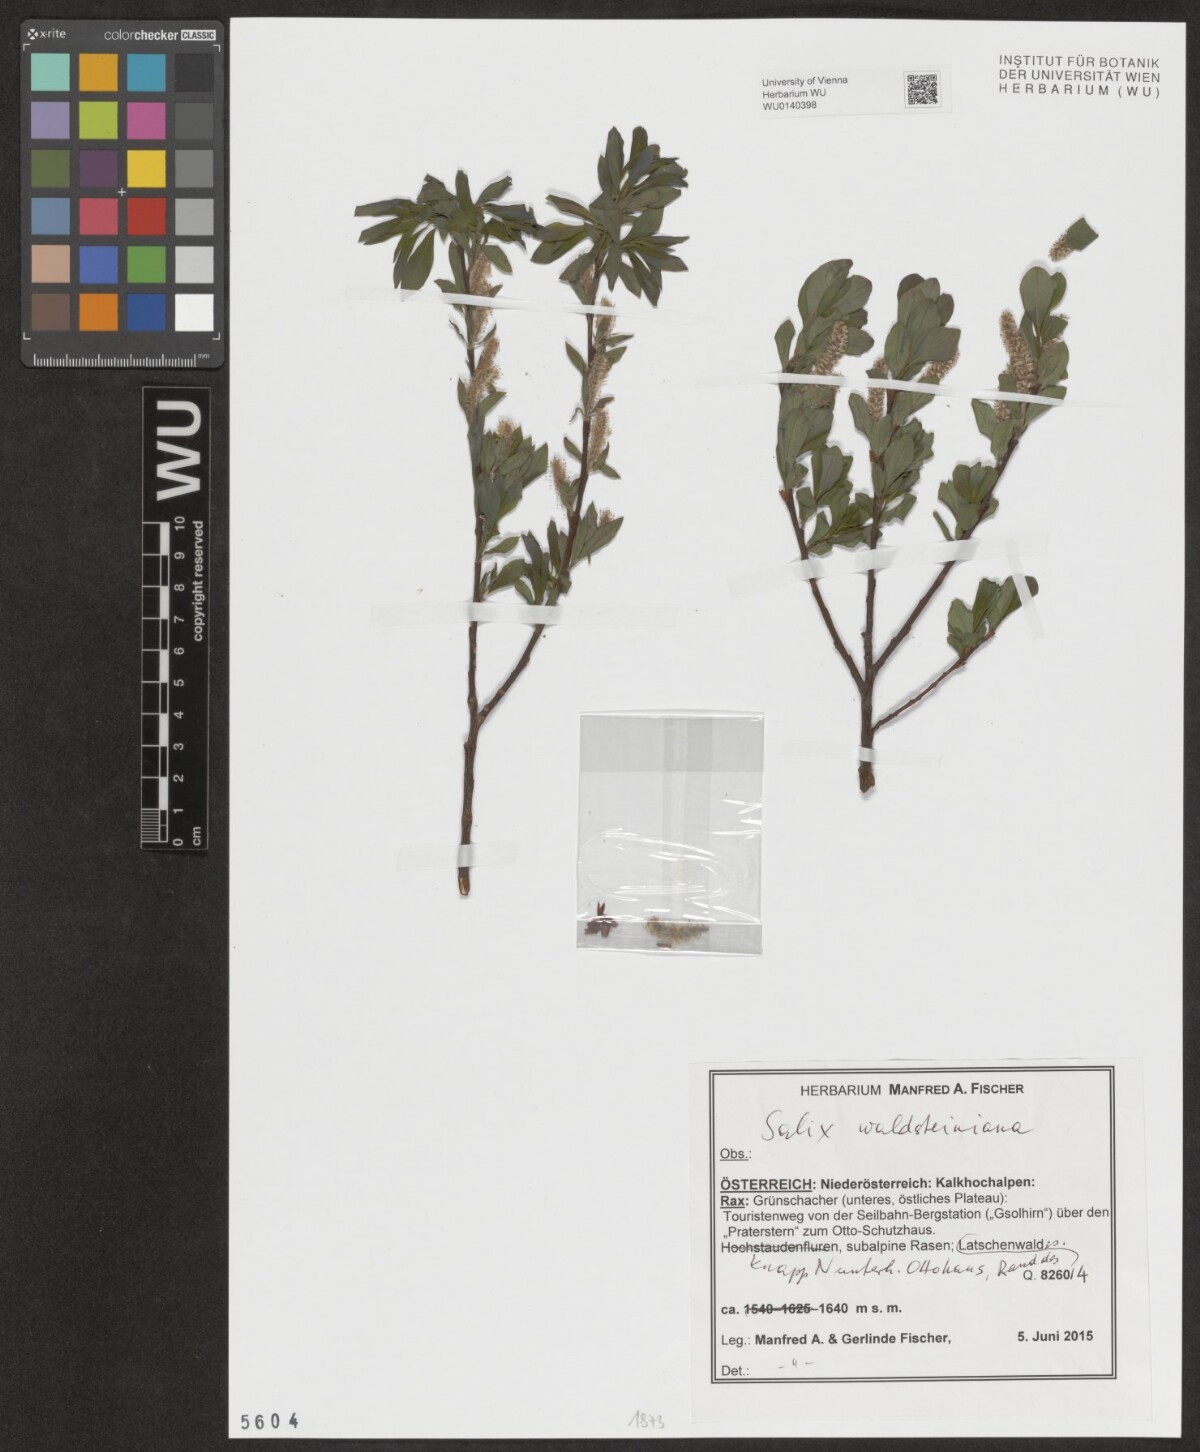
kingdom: Plantae
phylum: Tracheophyta
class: Magnoliopsida
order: Malpighiales
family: Salicaceae
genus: Salix
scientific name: Salix waldsteiniana
